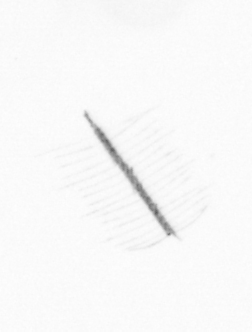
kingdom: Chromista
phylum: Ochrophyta
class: Bacillariophyceae
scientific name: Bacillariophyceae
